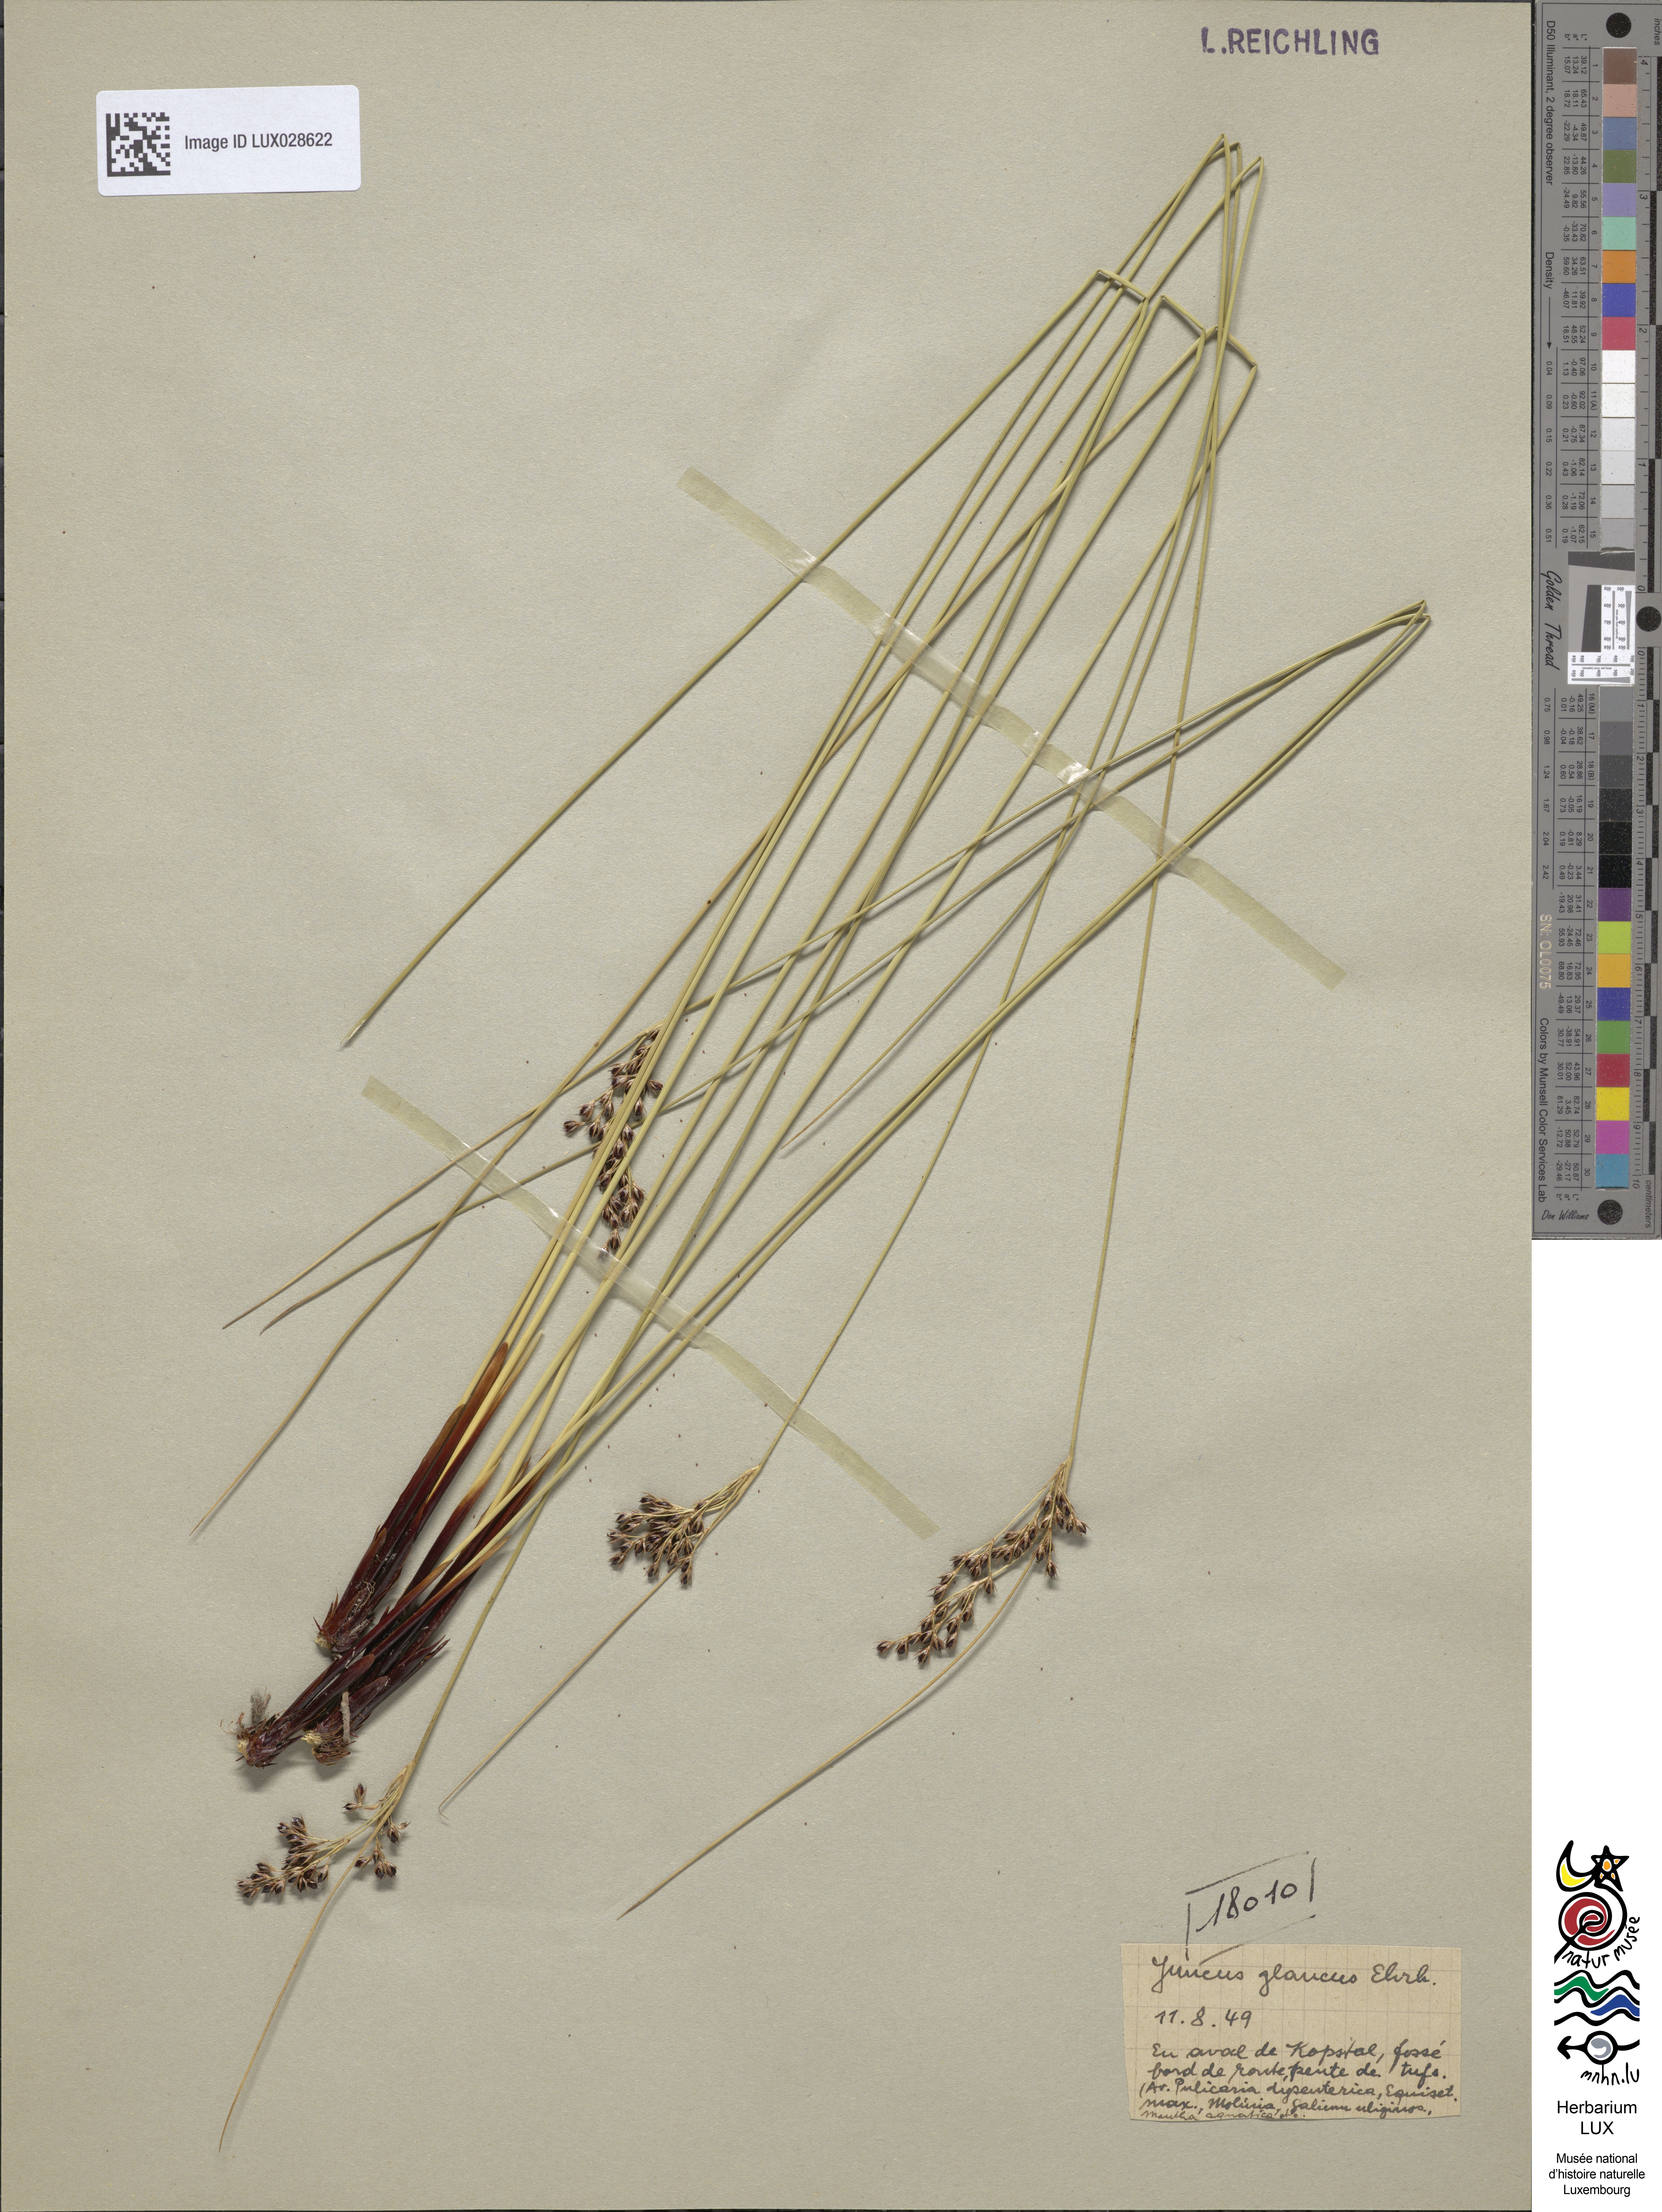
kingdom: Plantae
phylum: Tracheophyta
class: Liliopsida
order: Poales
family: Juncaceae
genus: Juncus
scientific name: Juncus inflexus
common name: Hard rush
